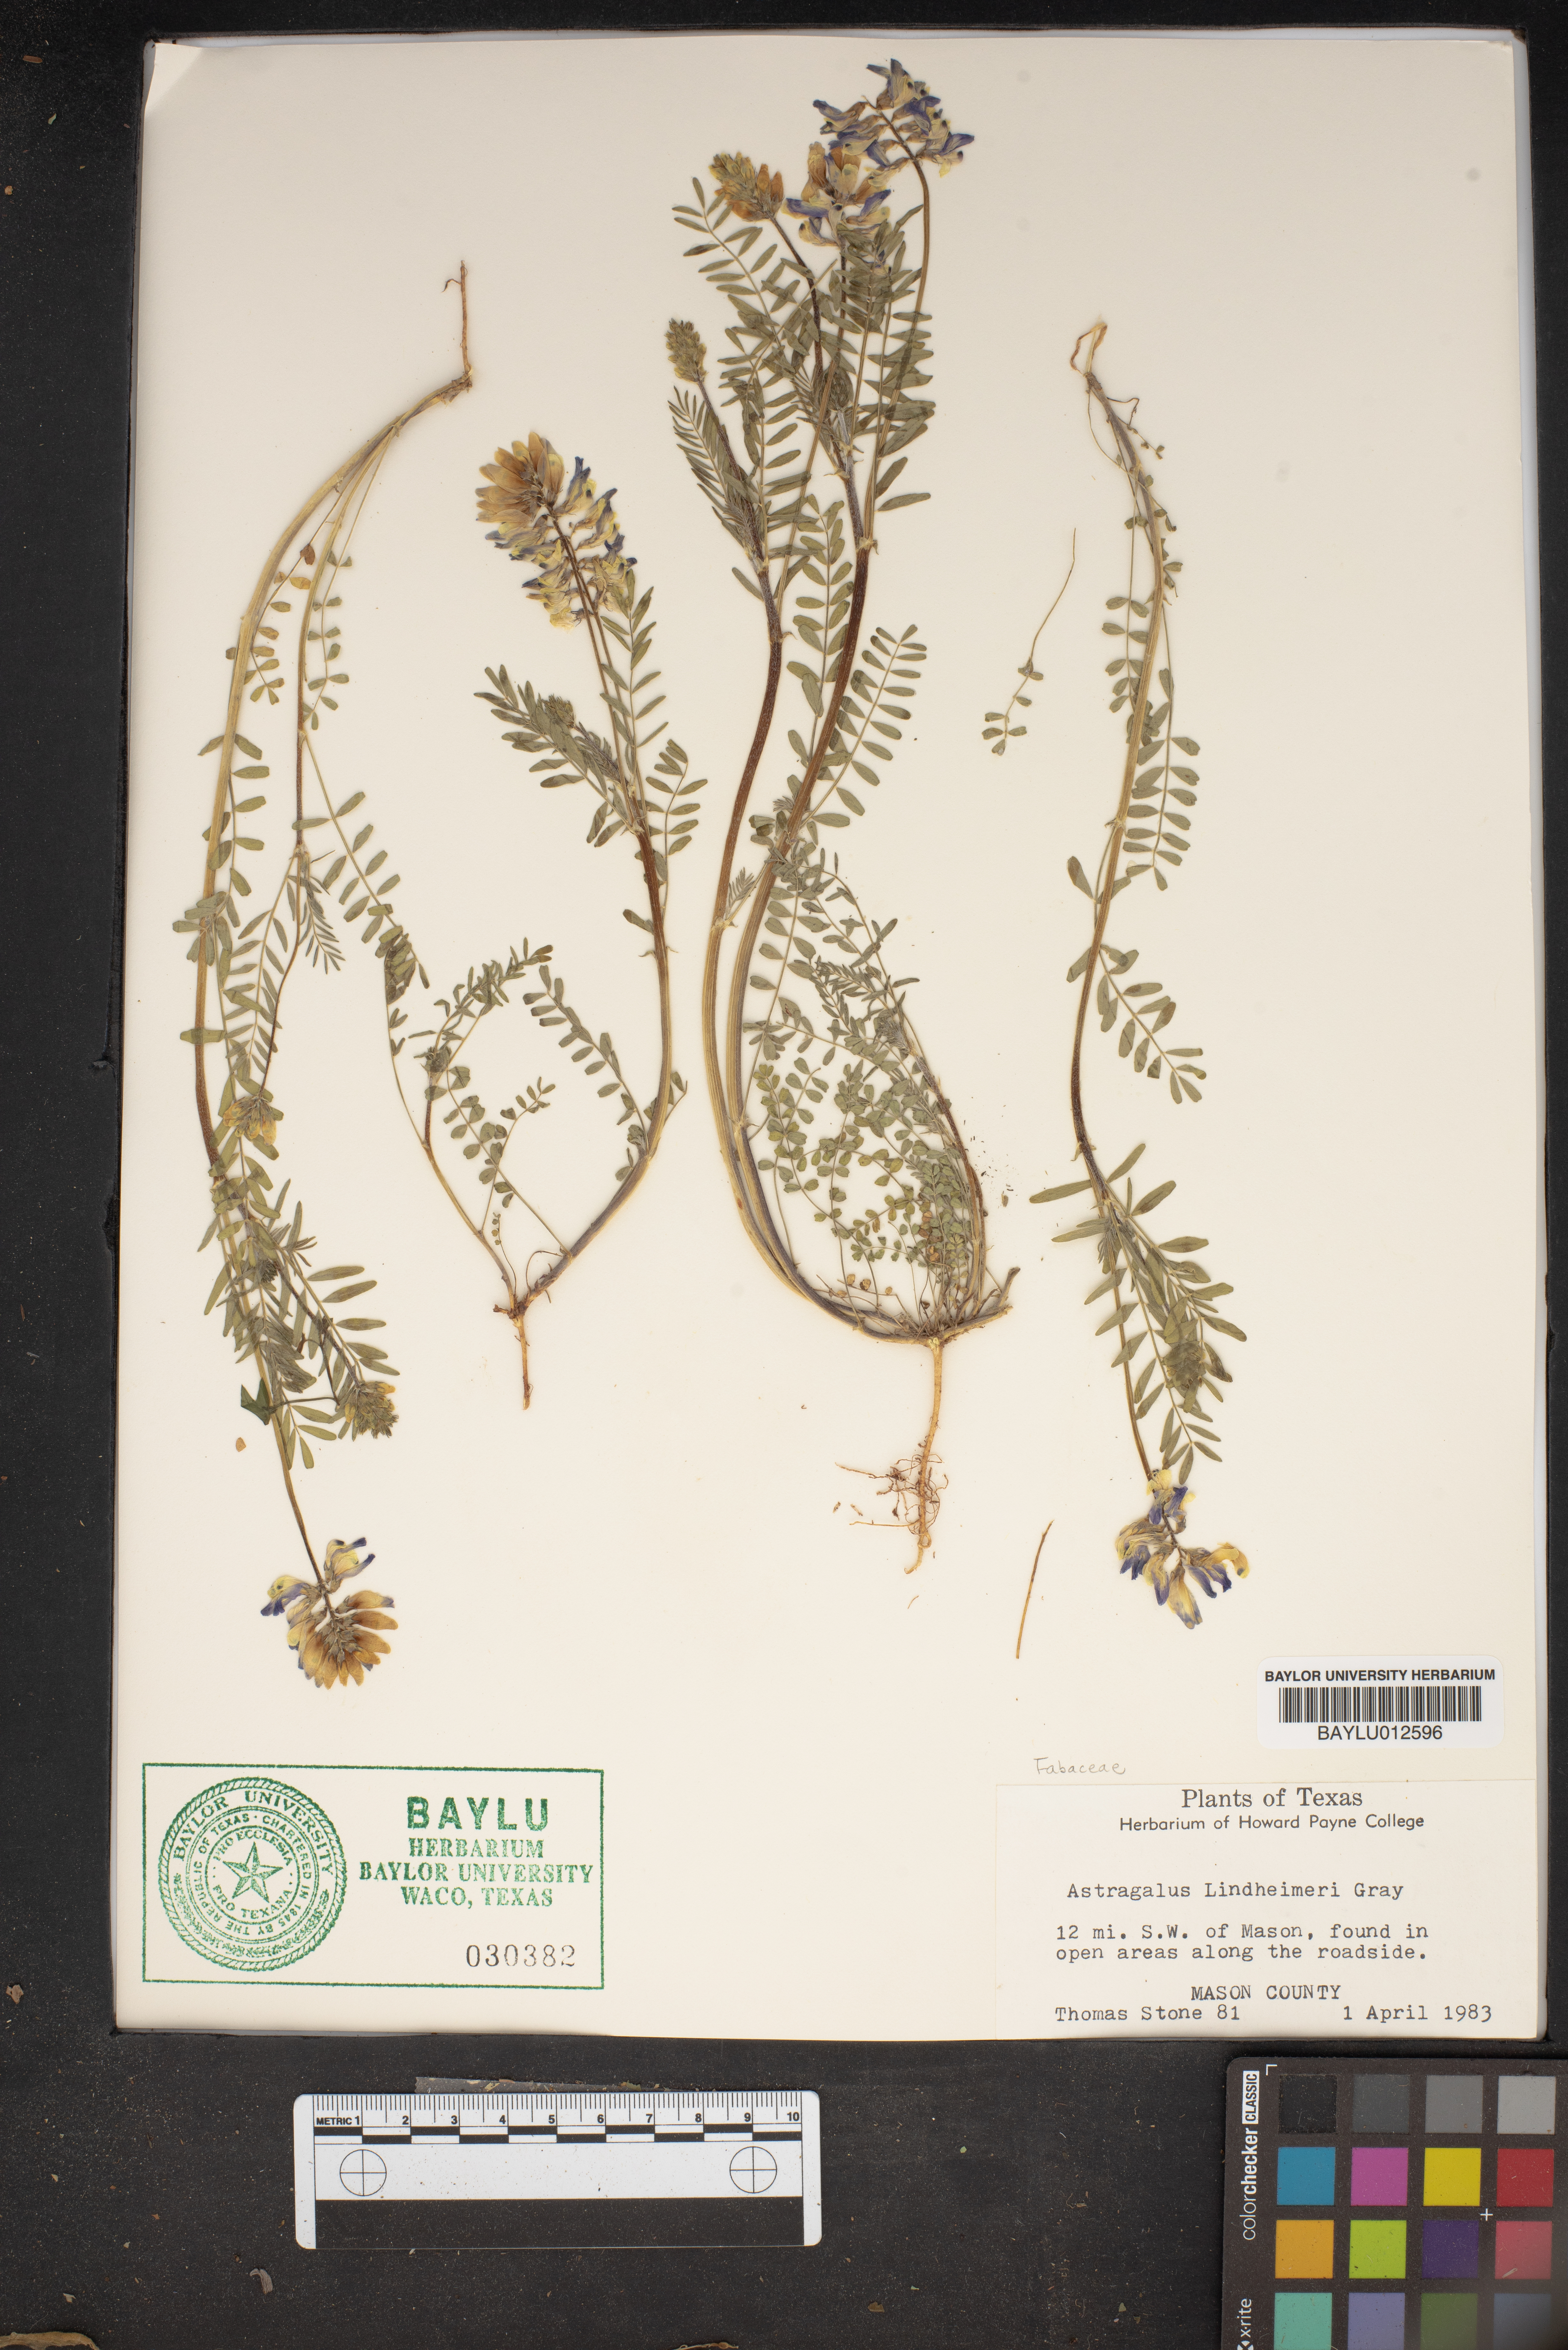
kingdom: Plantae
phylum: Tracheophyta
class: Magnoliopsida
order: Fabales
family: Fabaceae
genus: Astragalus
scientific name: Astragalus lindheimeri
